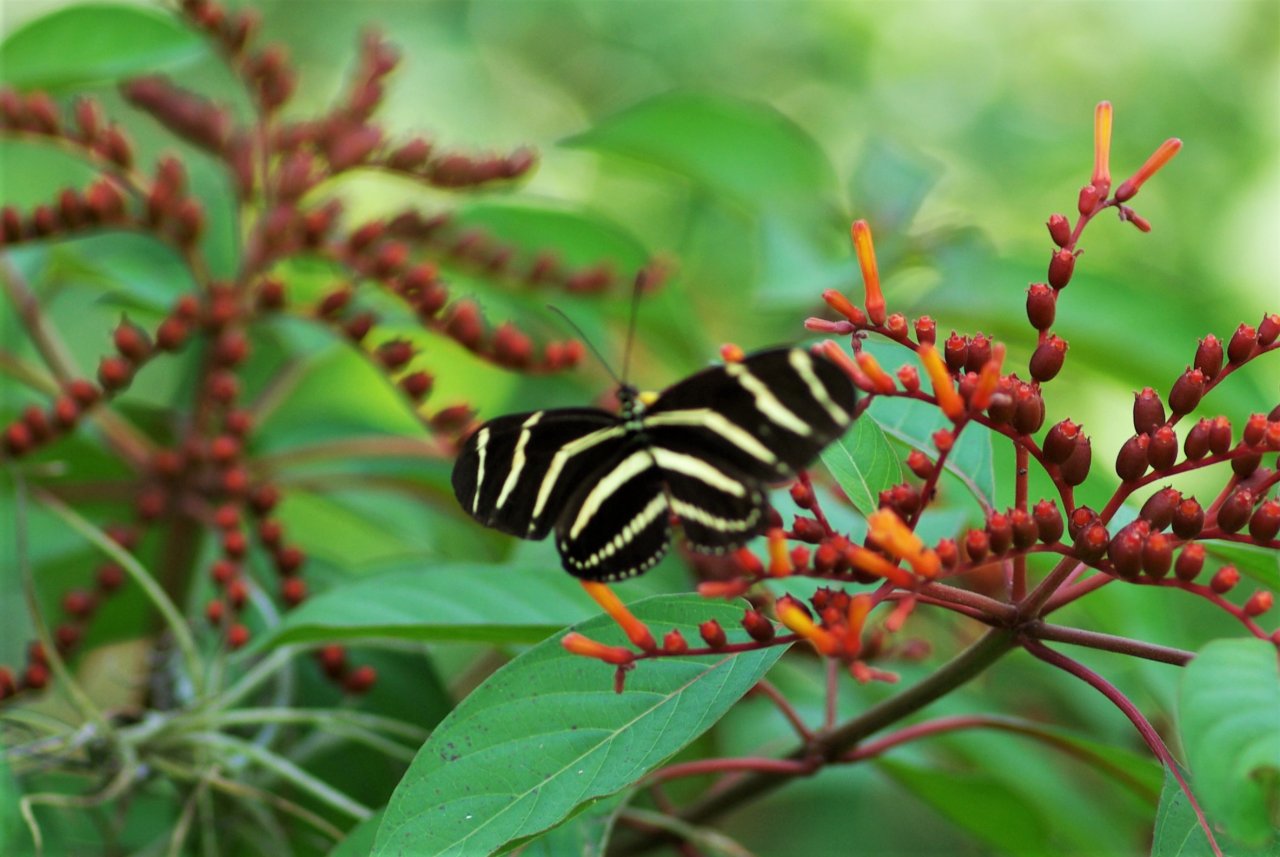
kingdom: Animalia
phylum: Arthropoda
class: Insecta
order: Lepidoptera
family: Nymphalidae
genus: Heliconius
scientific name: Heliconius charithonia
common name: Zebra Longwing
